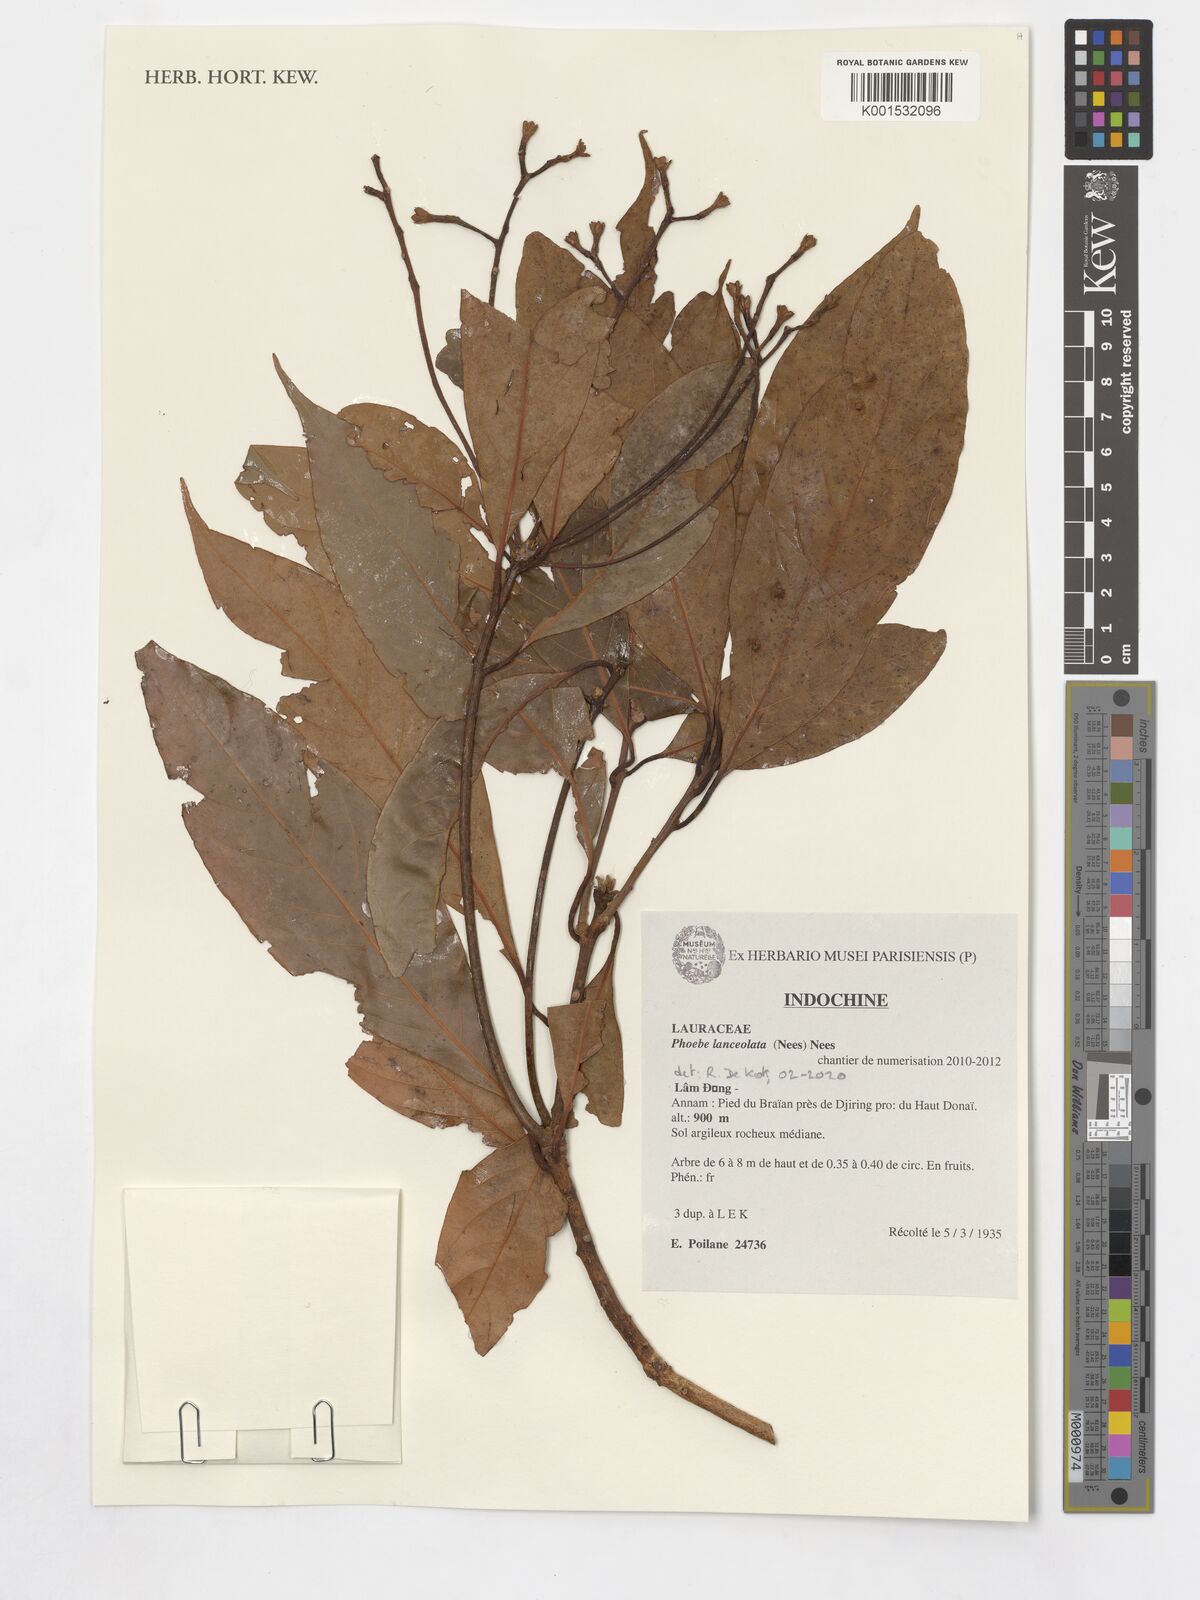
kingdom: Plantae
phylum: Tracheophyta
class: Magnoliopsida
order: Laurales
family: Lauraceae
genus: Phoebe
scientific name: Phoebe lanceolata
